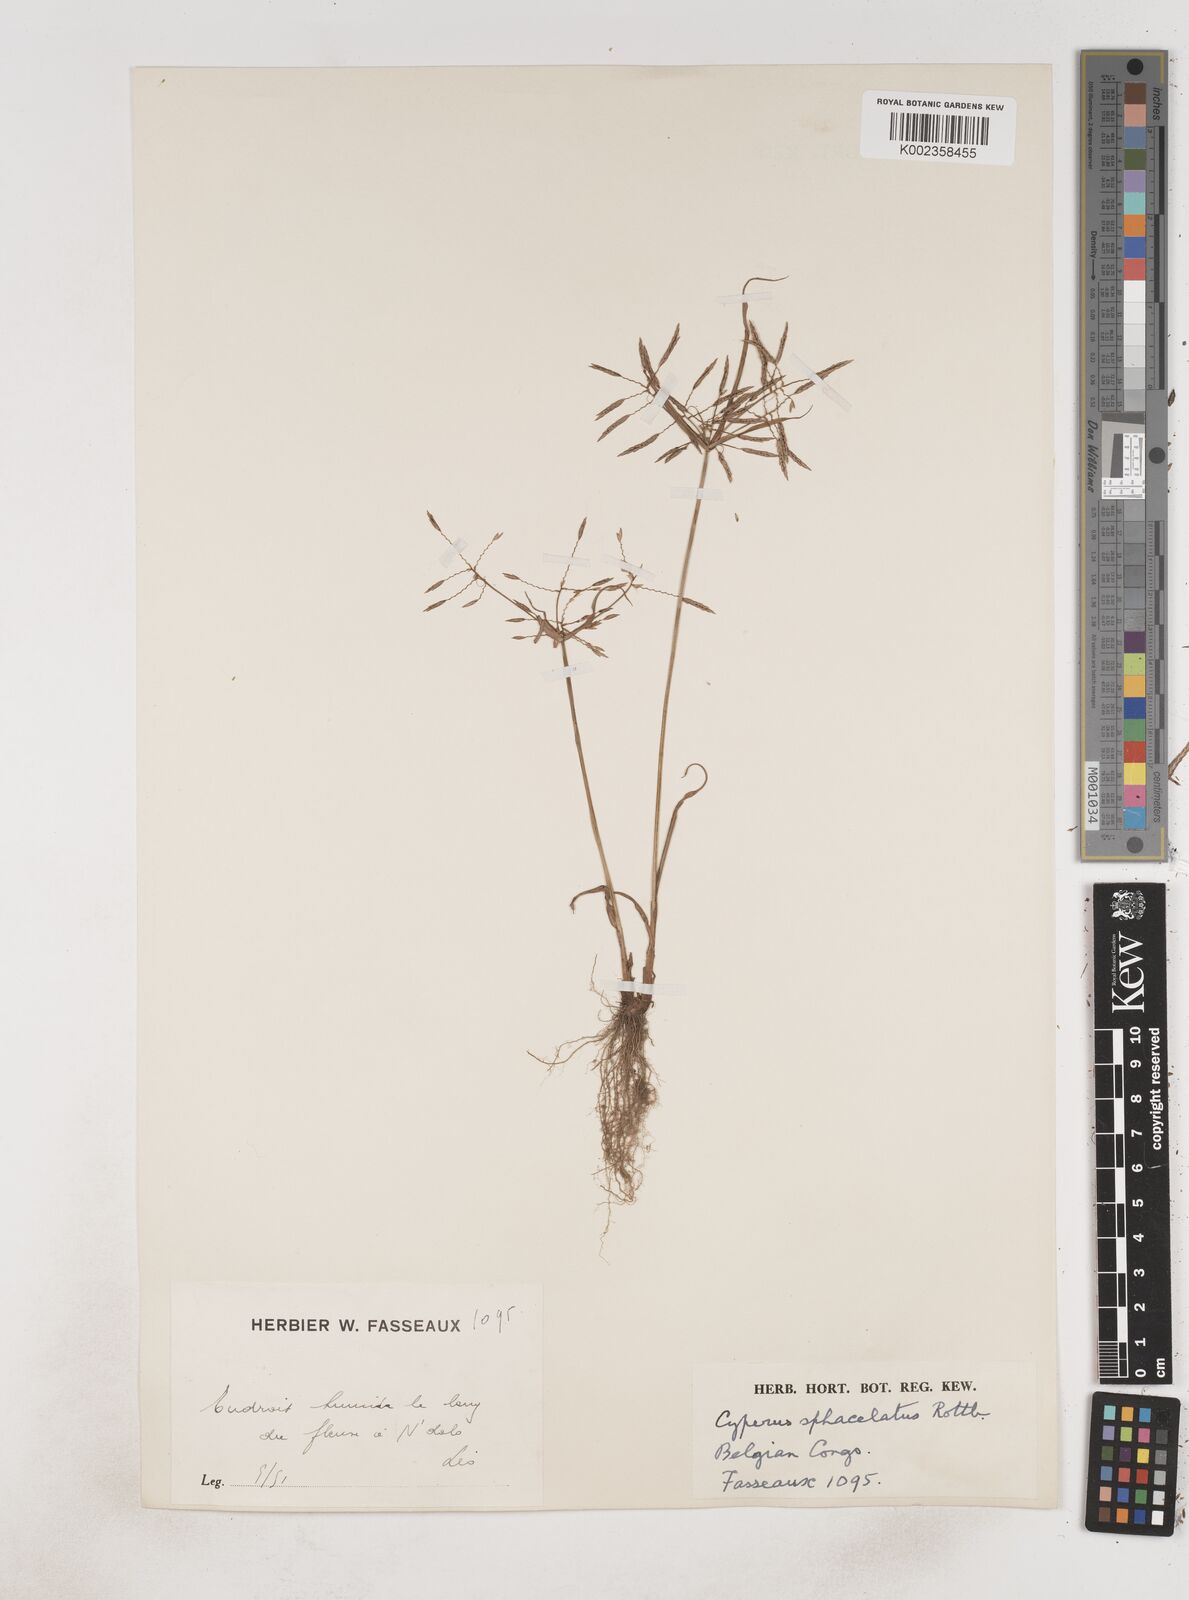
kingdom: Plantae
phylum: Tracheophyta
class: Liliopsida
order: Poales
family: Cyperaceae
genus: Cyperus
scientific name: Cyperus sphacelatus
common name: Roadside flatsedge
